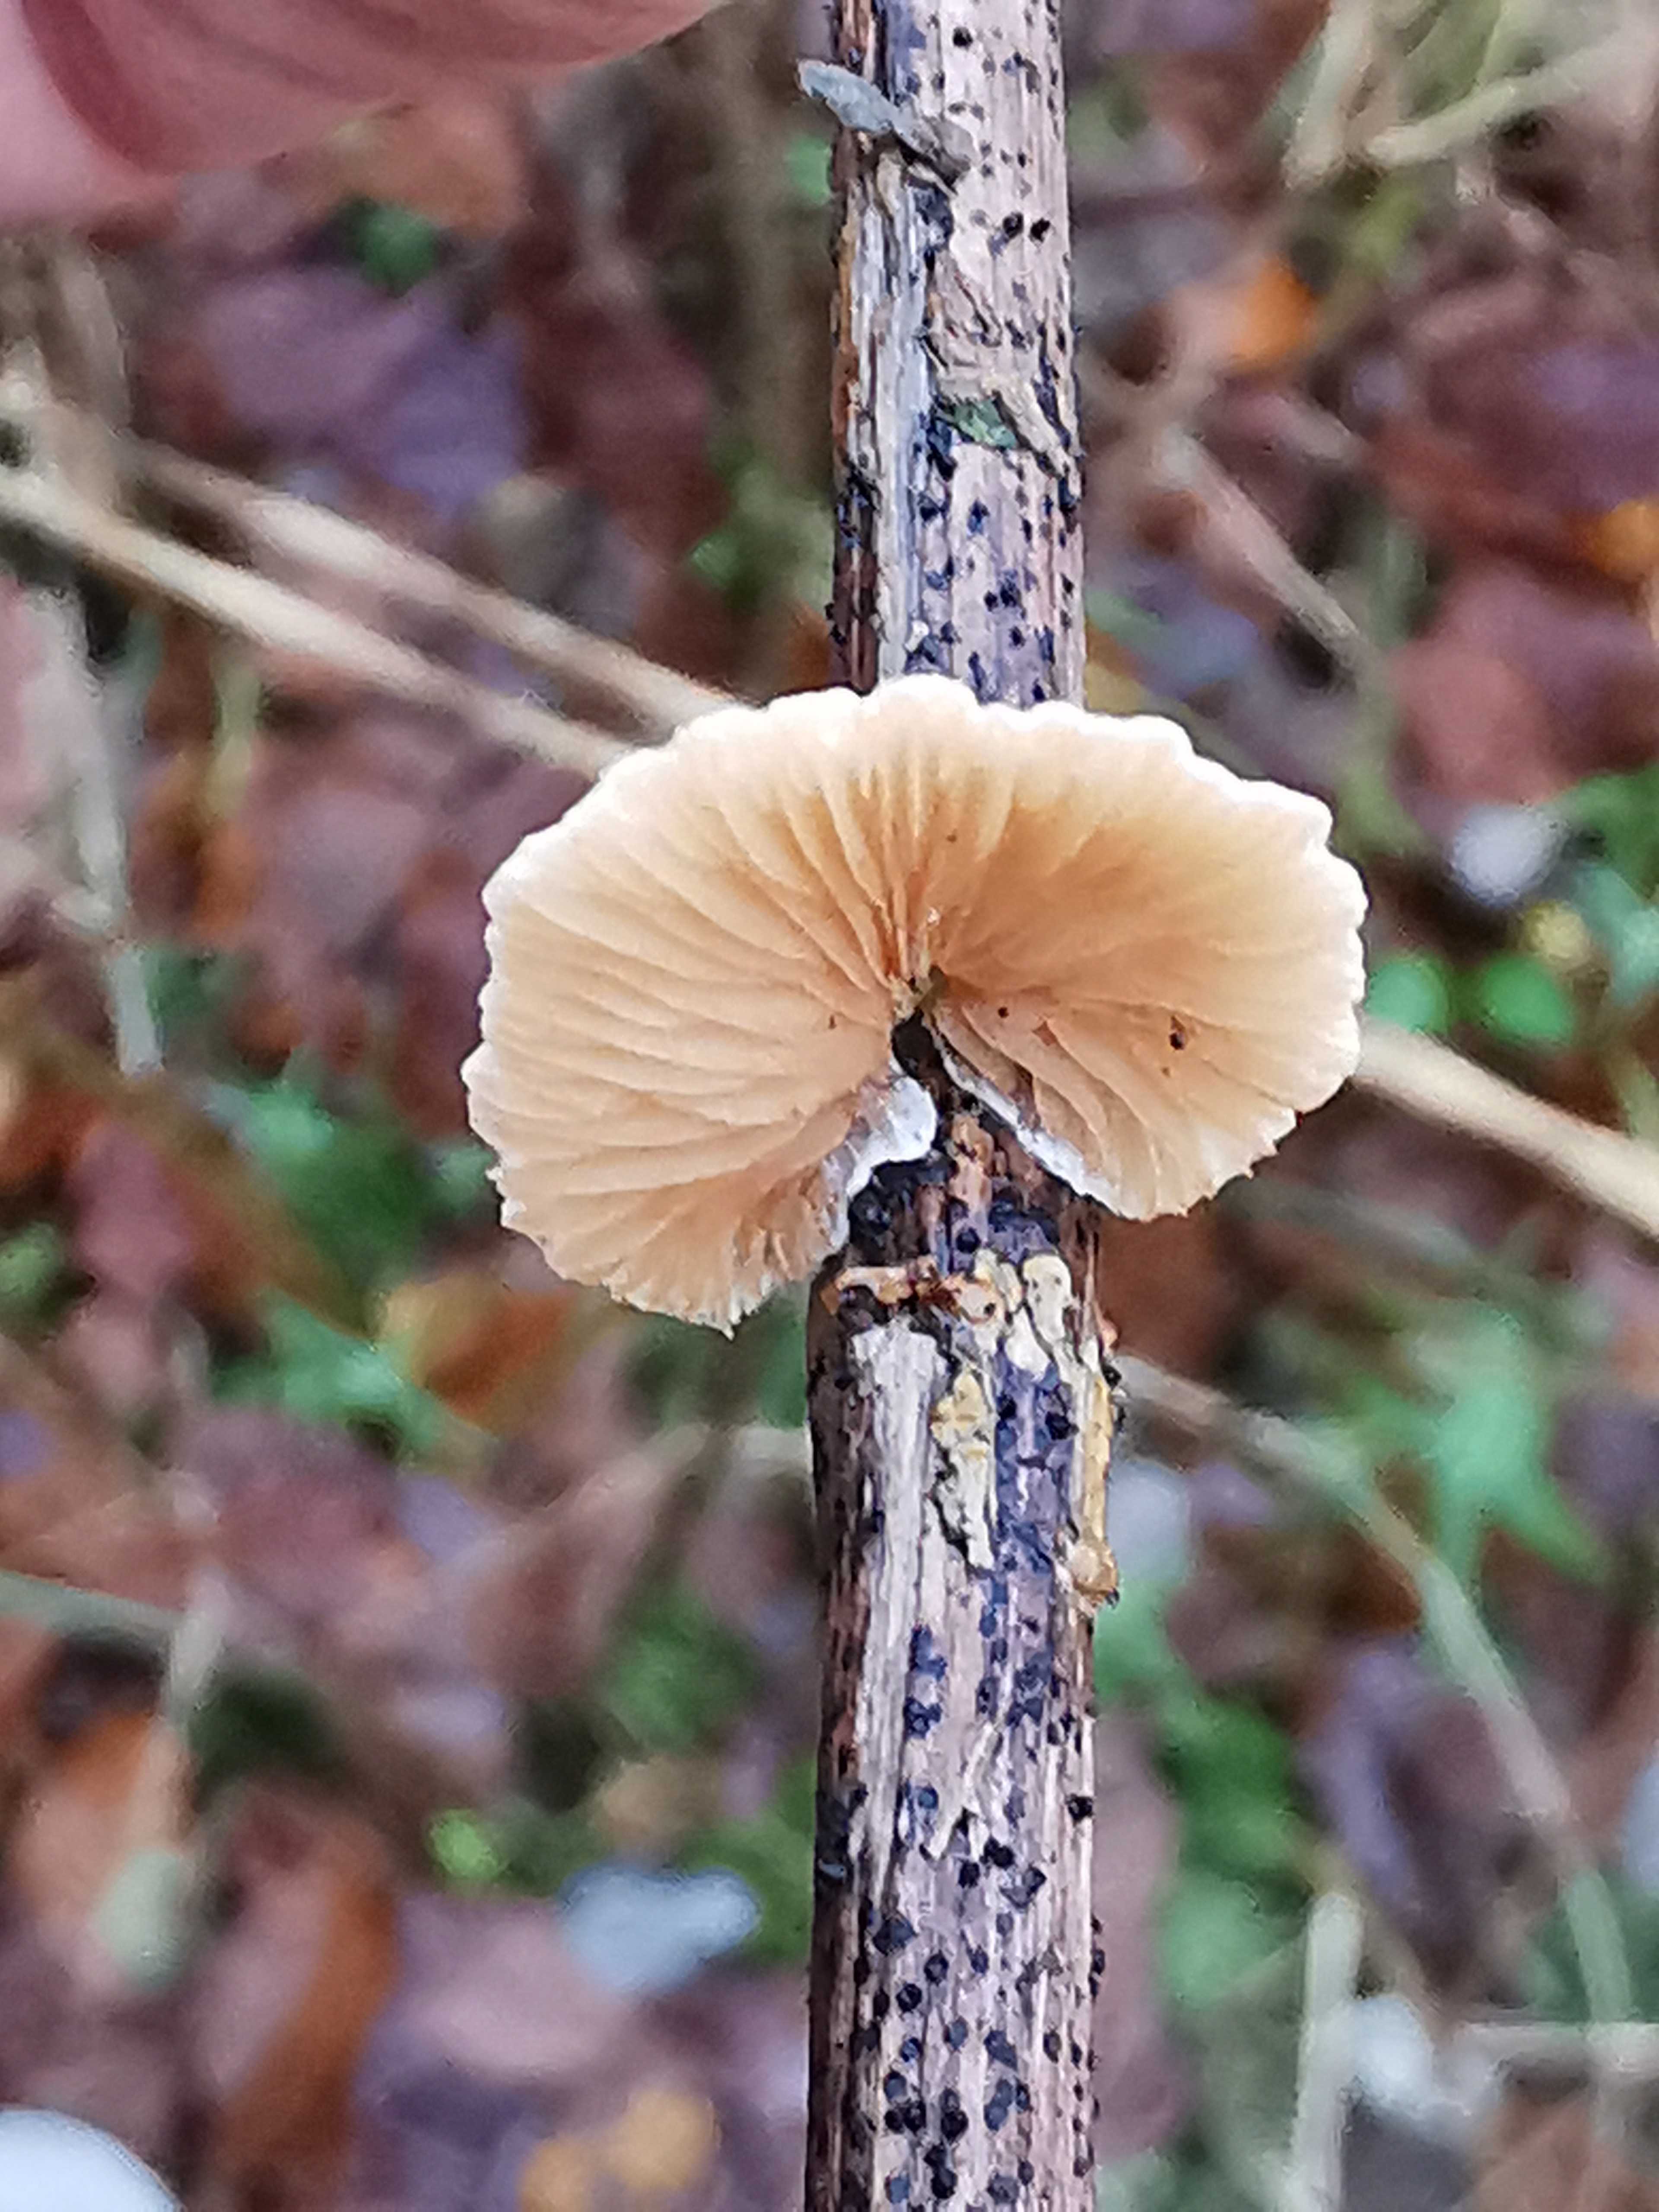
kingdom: Fungi
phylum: Basidiomycota
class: Agaricomycetes
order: Agaricales
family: Crepidotaceae
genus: Crepidotus
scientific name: Crepidotus luteolus
